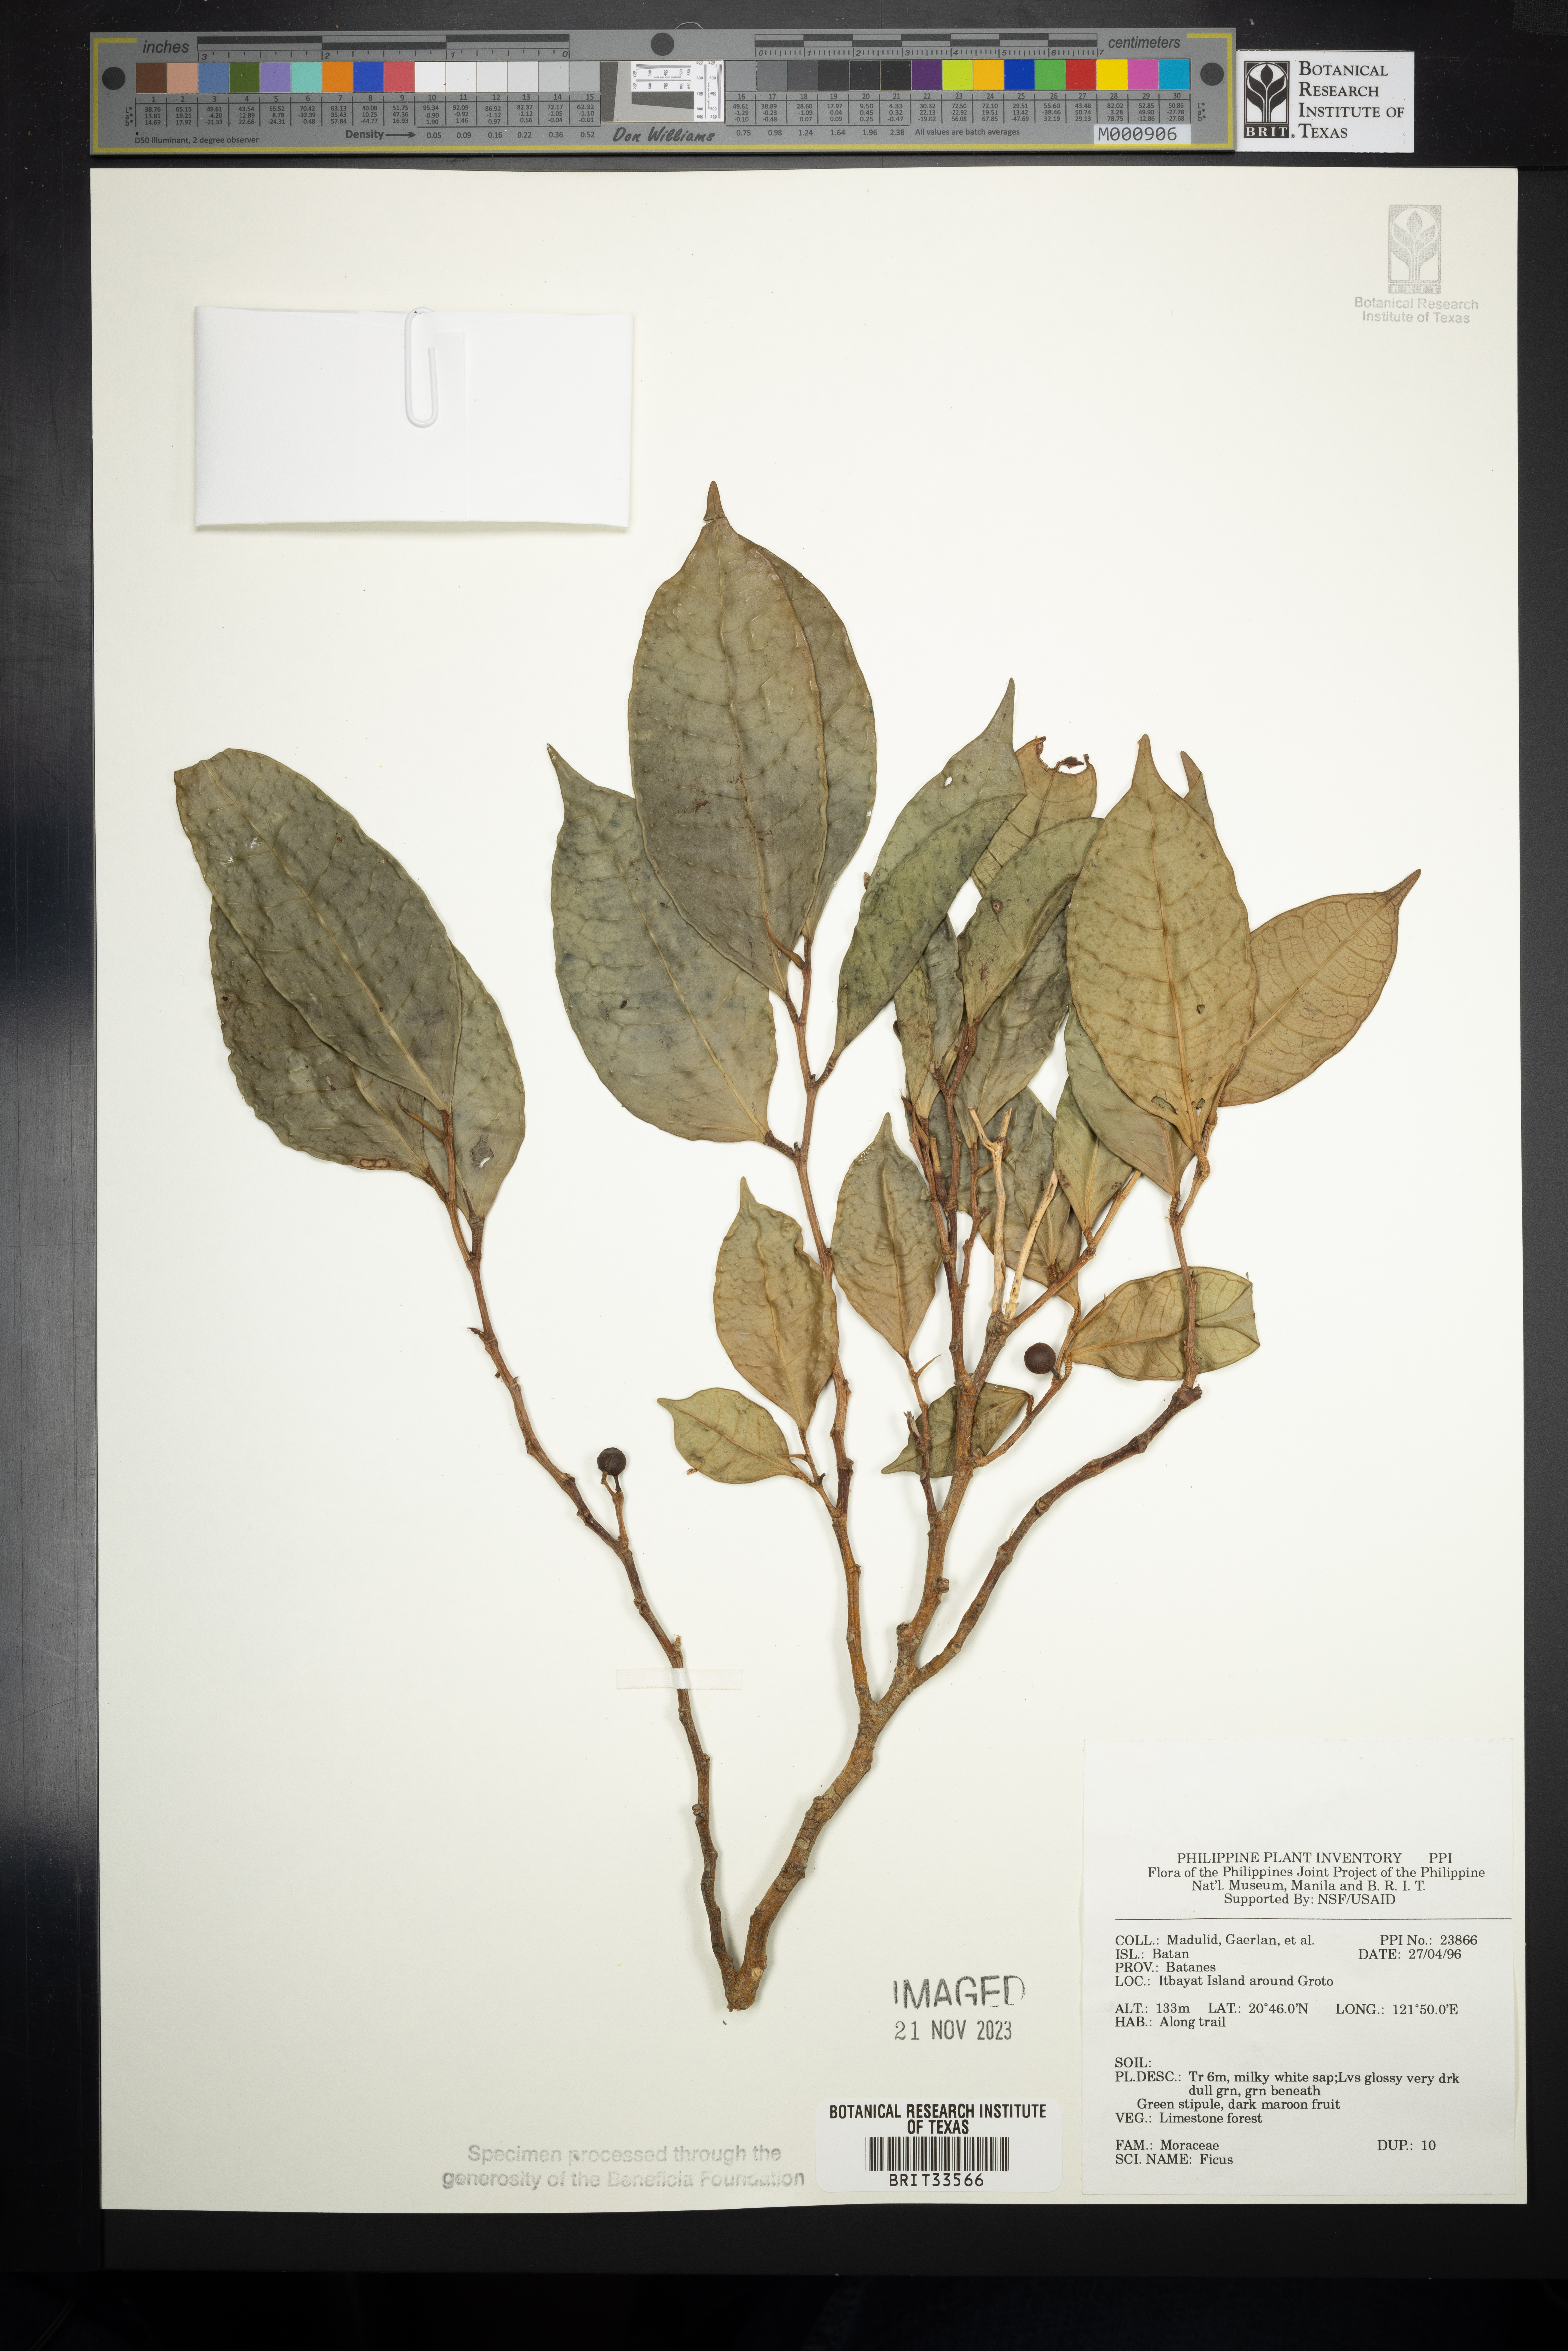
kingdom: Plantae
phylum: Tracheophyta
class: Magnoliopsida
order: Rosales
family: Moraceae
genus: Ficus
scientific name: Ficus
